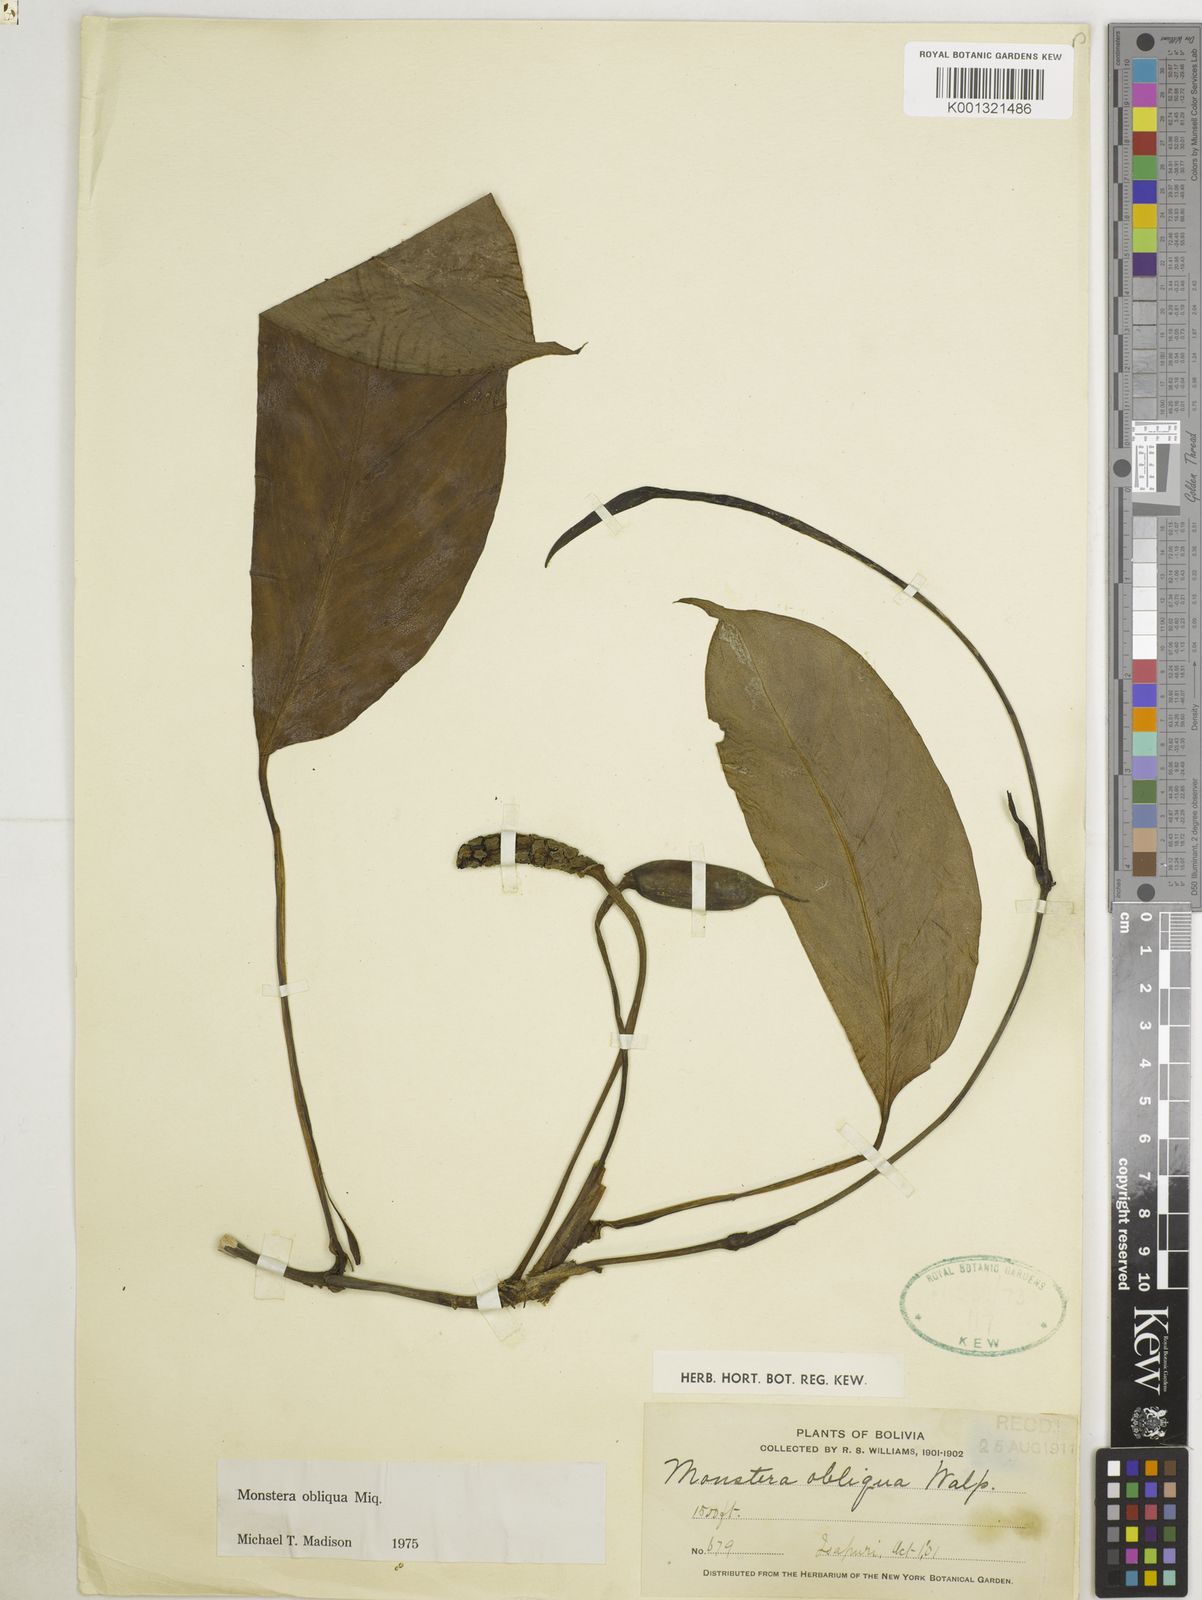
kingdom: Plantae
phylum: Tracheophyta
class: Liliopsida
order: Alismatales
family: Araceae
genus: Monstera
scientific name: Monstera obliqua
